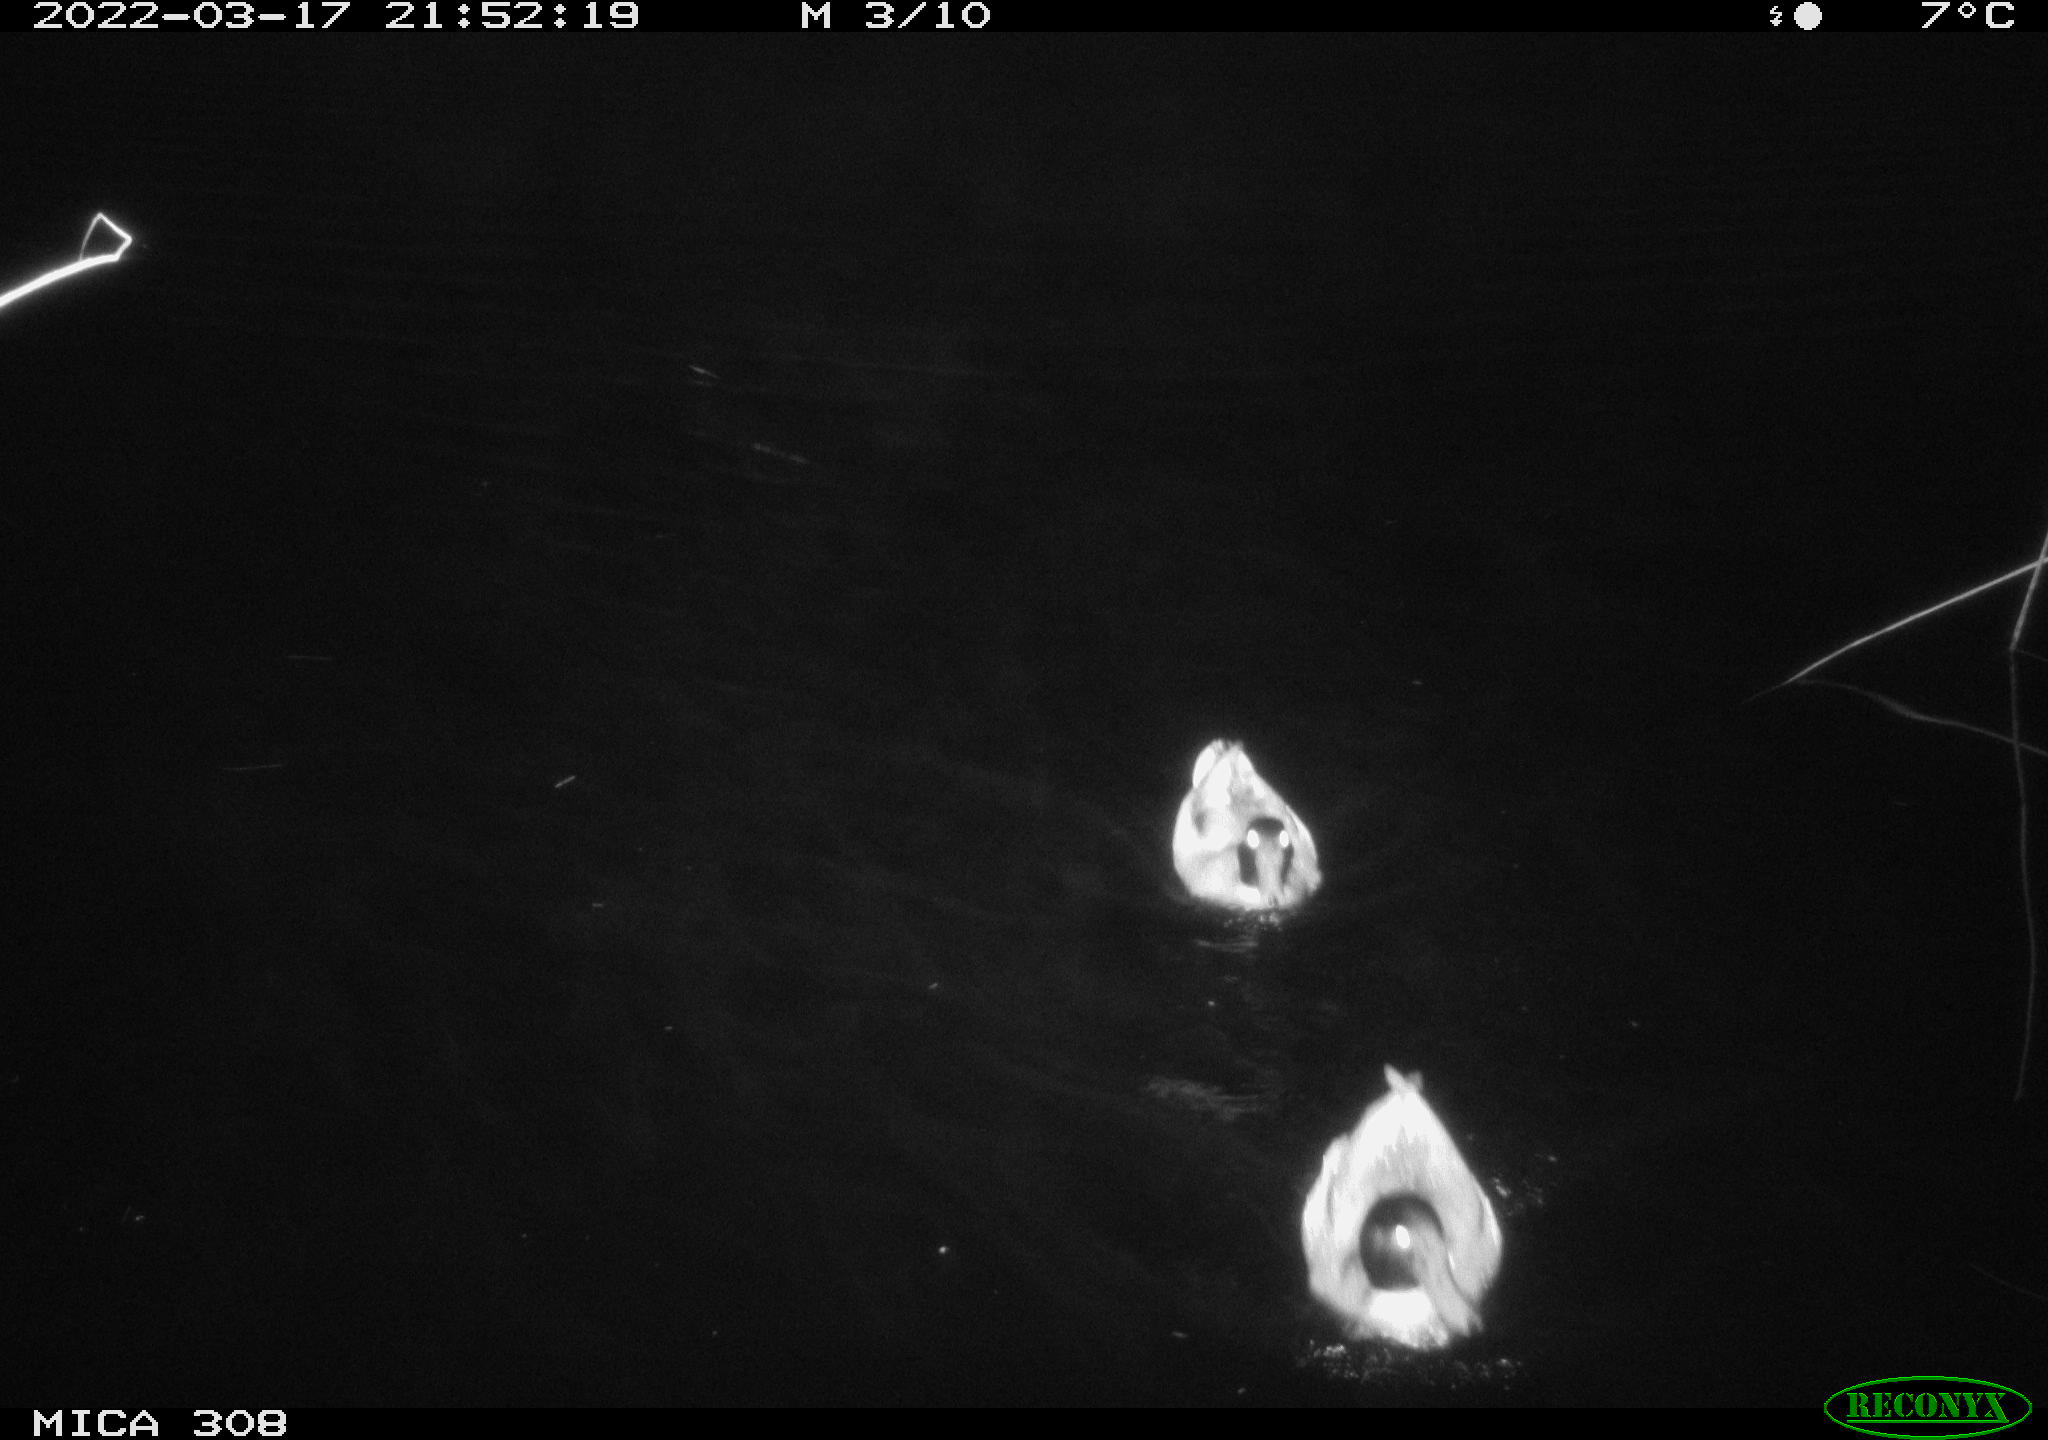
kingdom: Animalia
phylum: Chordata
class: Aves
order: Anseriformes
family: Anatidae
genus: Anas
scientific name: Anas platyrhynchos
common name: Mallard
